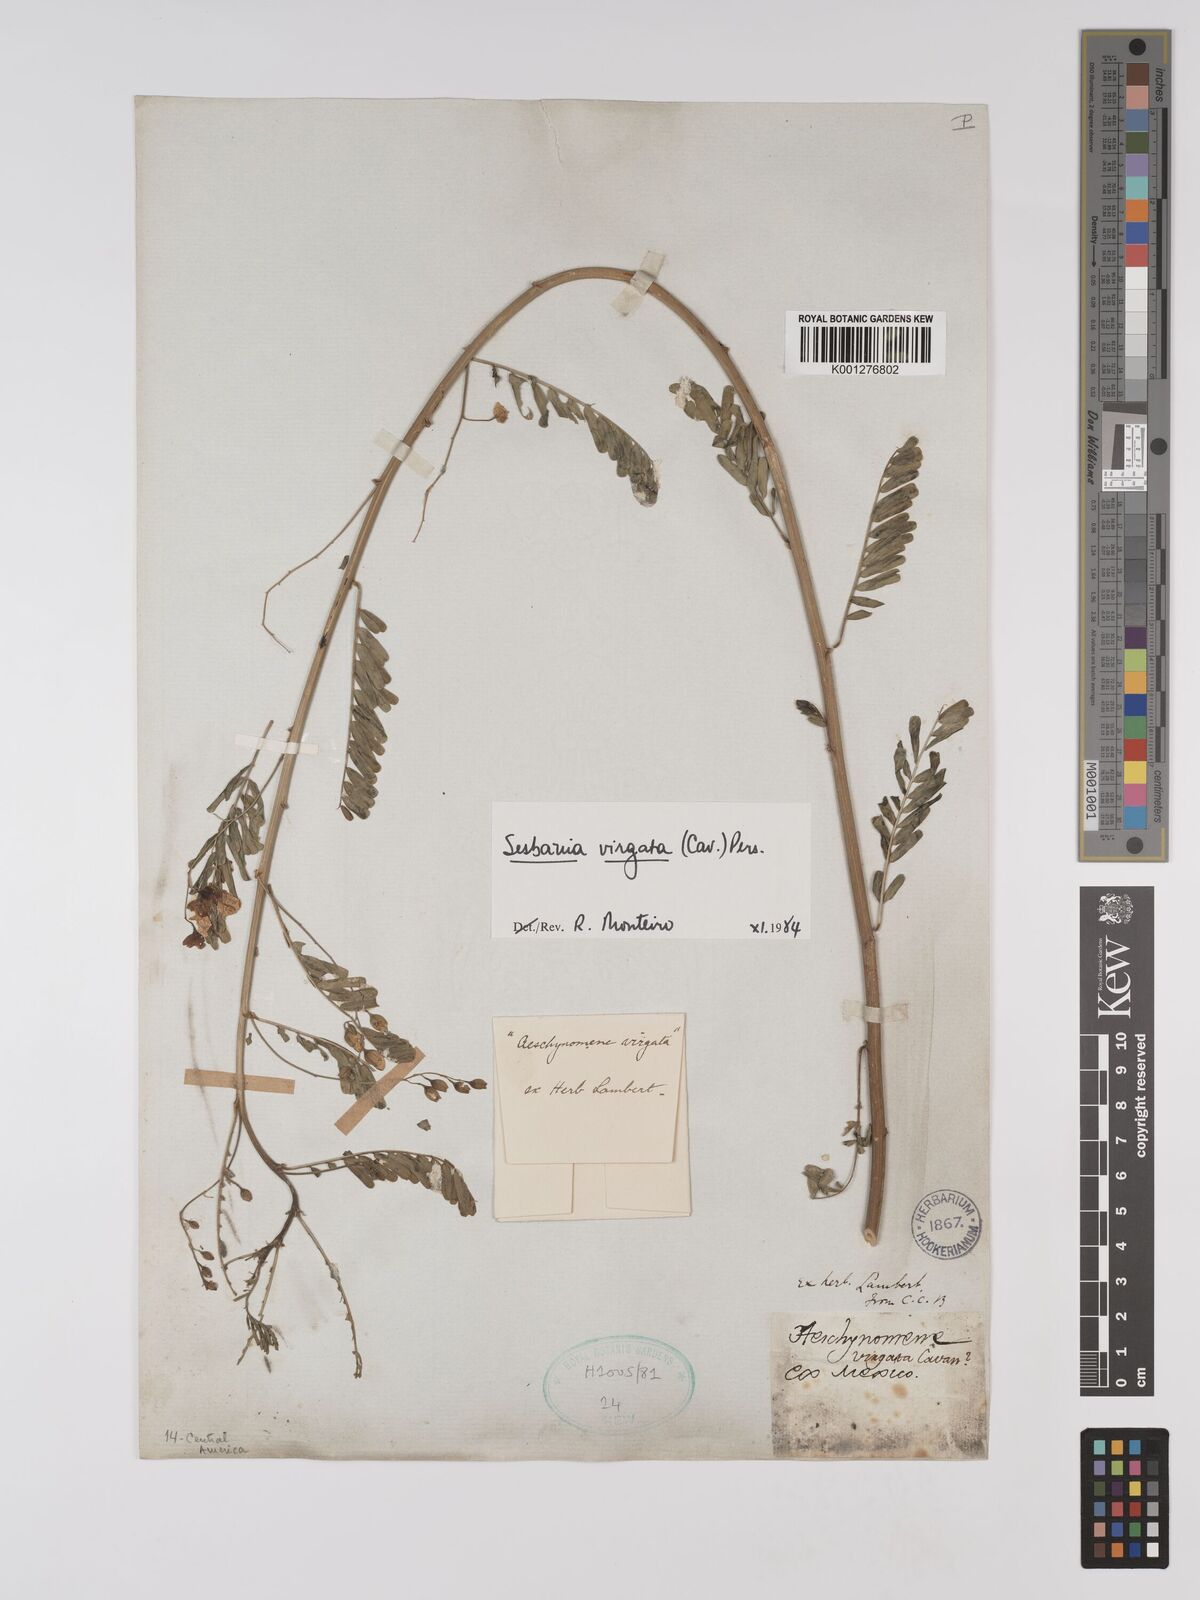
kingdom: Plantae
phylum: Tracheophyta
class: Magnoliopsida
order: Fabales
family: Fabaceae
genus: Sesbania
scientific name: Sesbania
